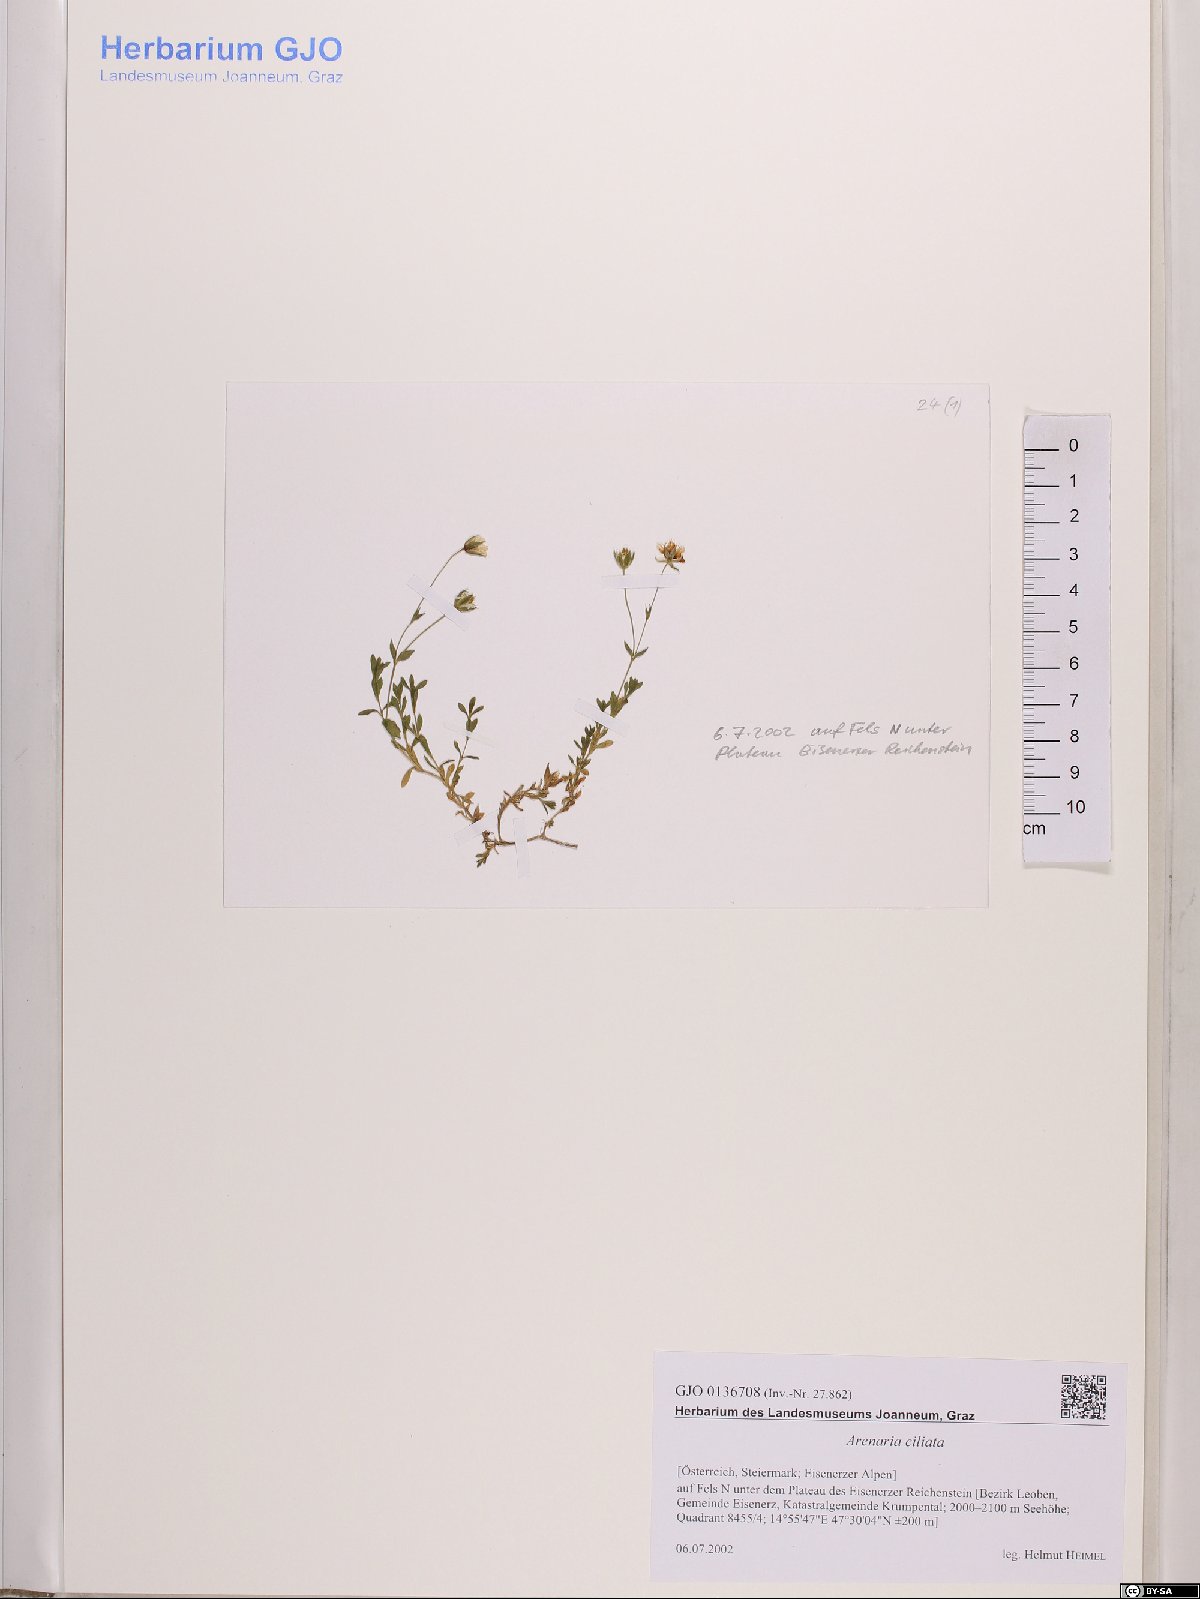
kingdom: Plantae
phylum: Tracheophyta
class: Magnoliopsida
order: Caryophyllales
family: Caryophyllaceae
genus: Arenaria
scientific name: Arenaria ciliata
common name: Fringed sandwort
